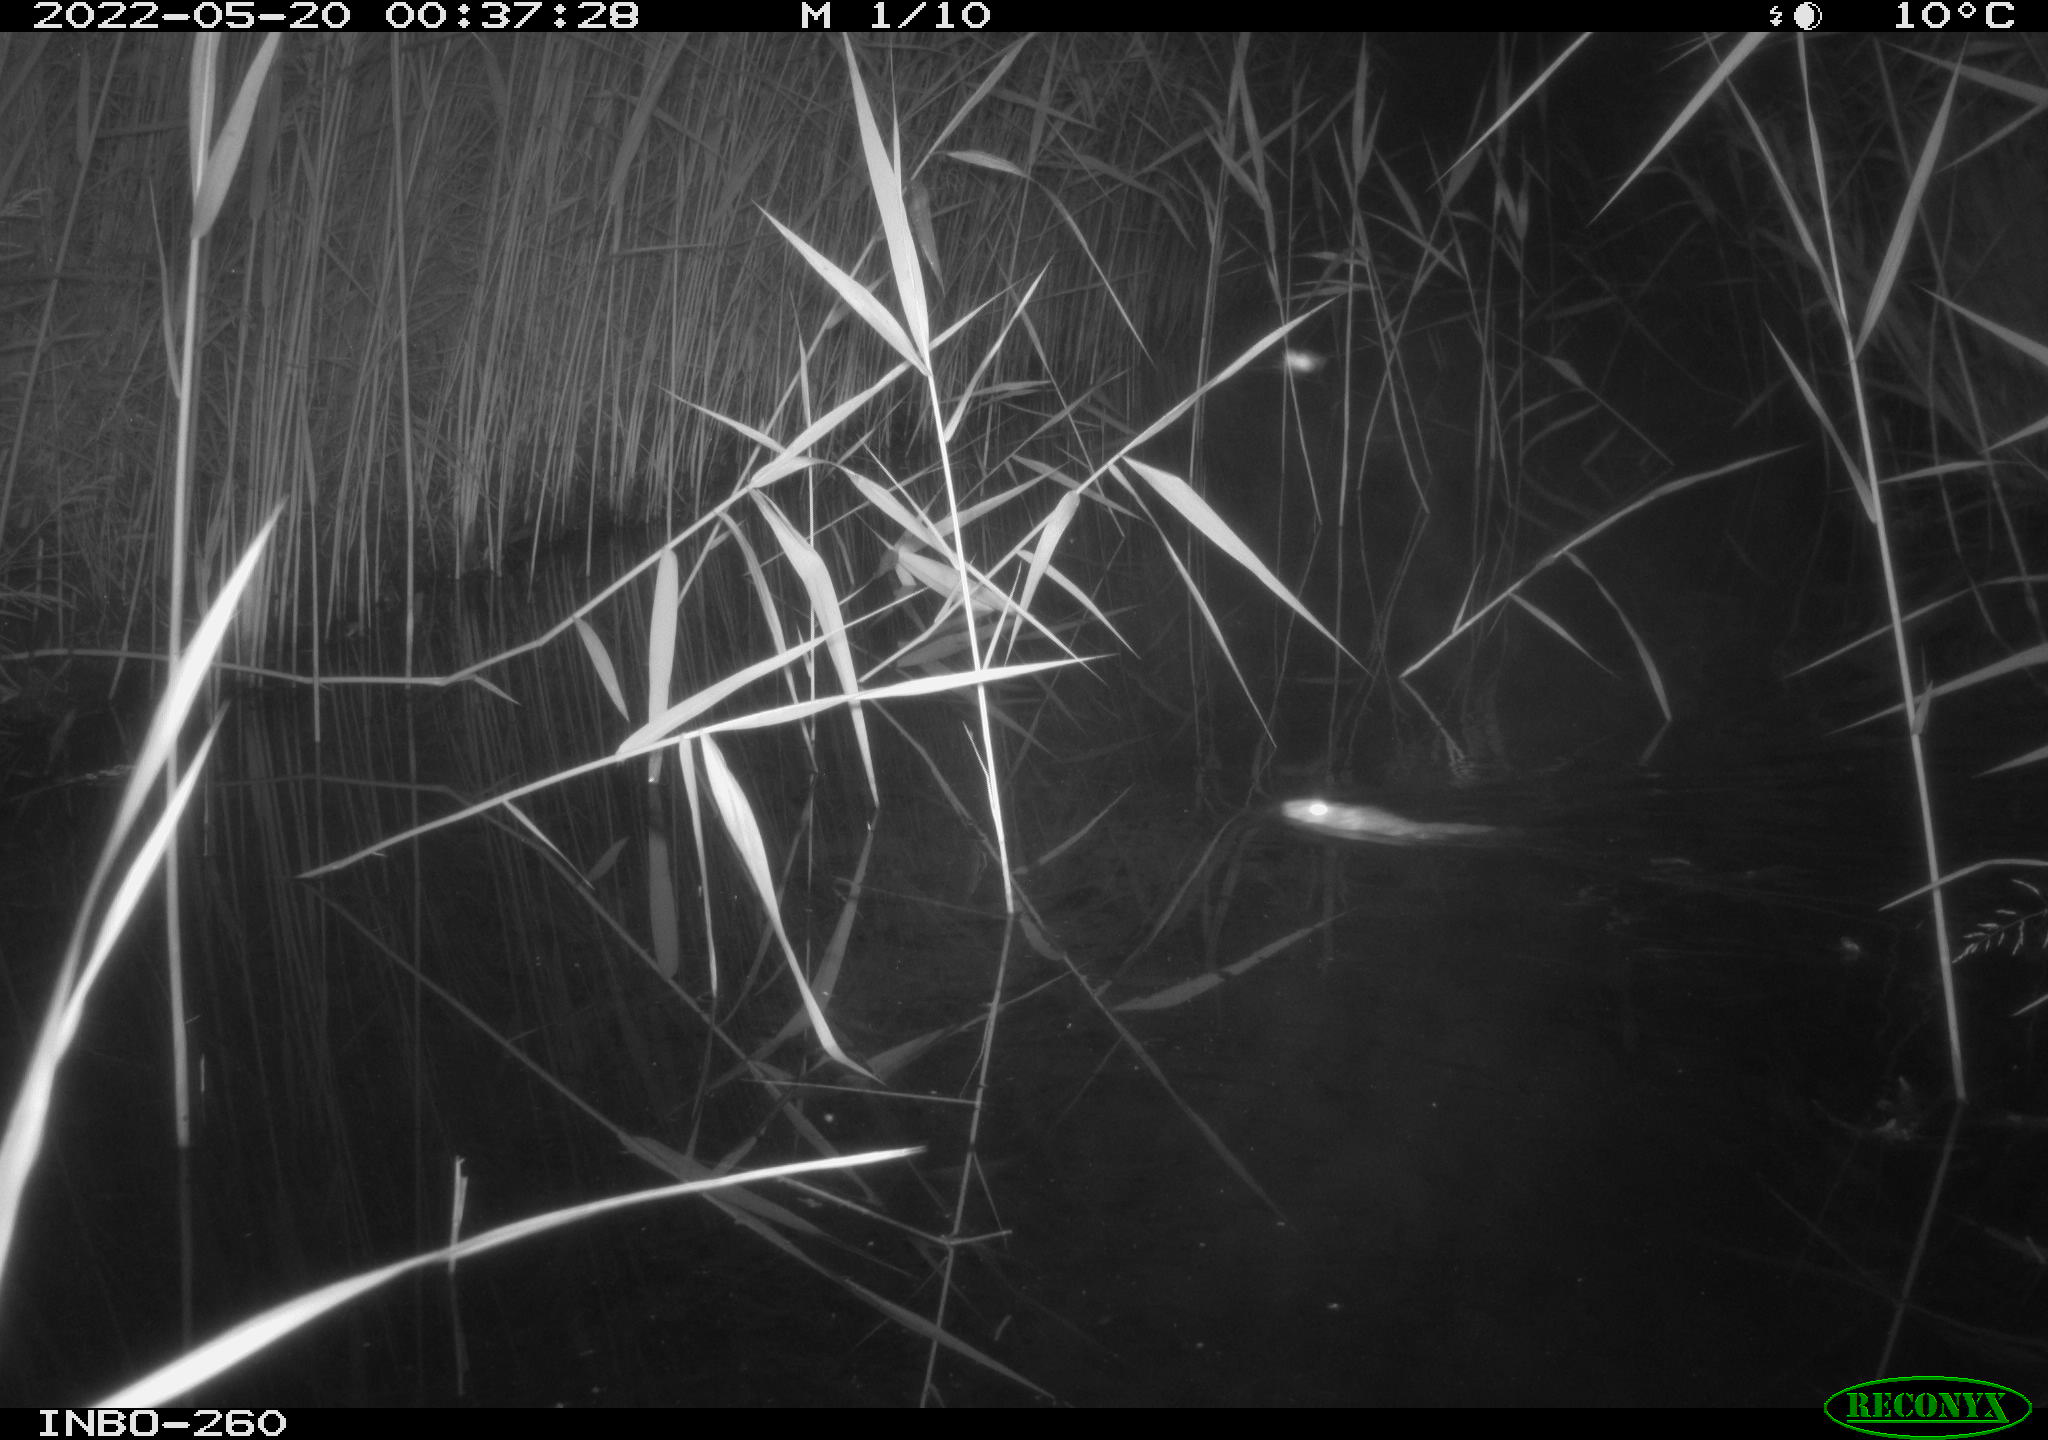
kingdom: Animalia
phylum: Chordata
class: Mammalia
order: Rodentia
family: Muridae
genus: Rattus
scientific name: Rattus norvegicus
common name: Brown rat
